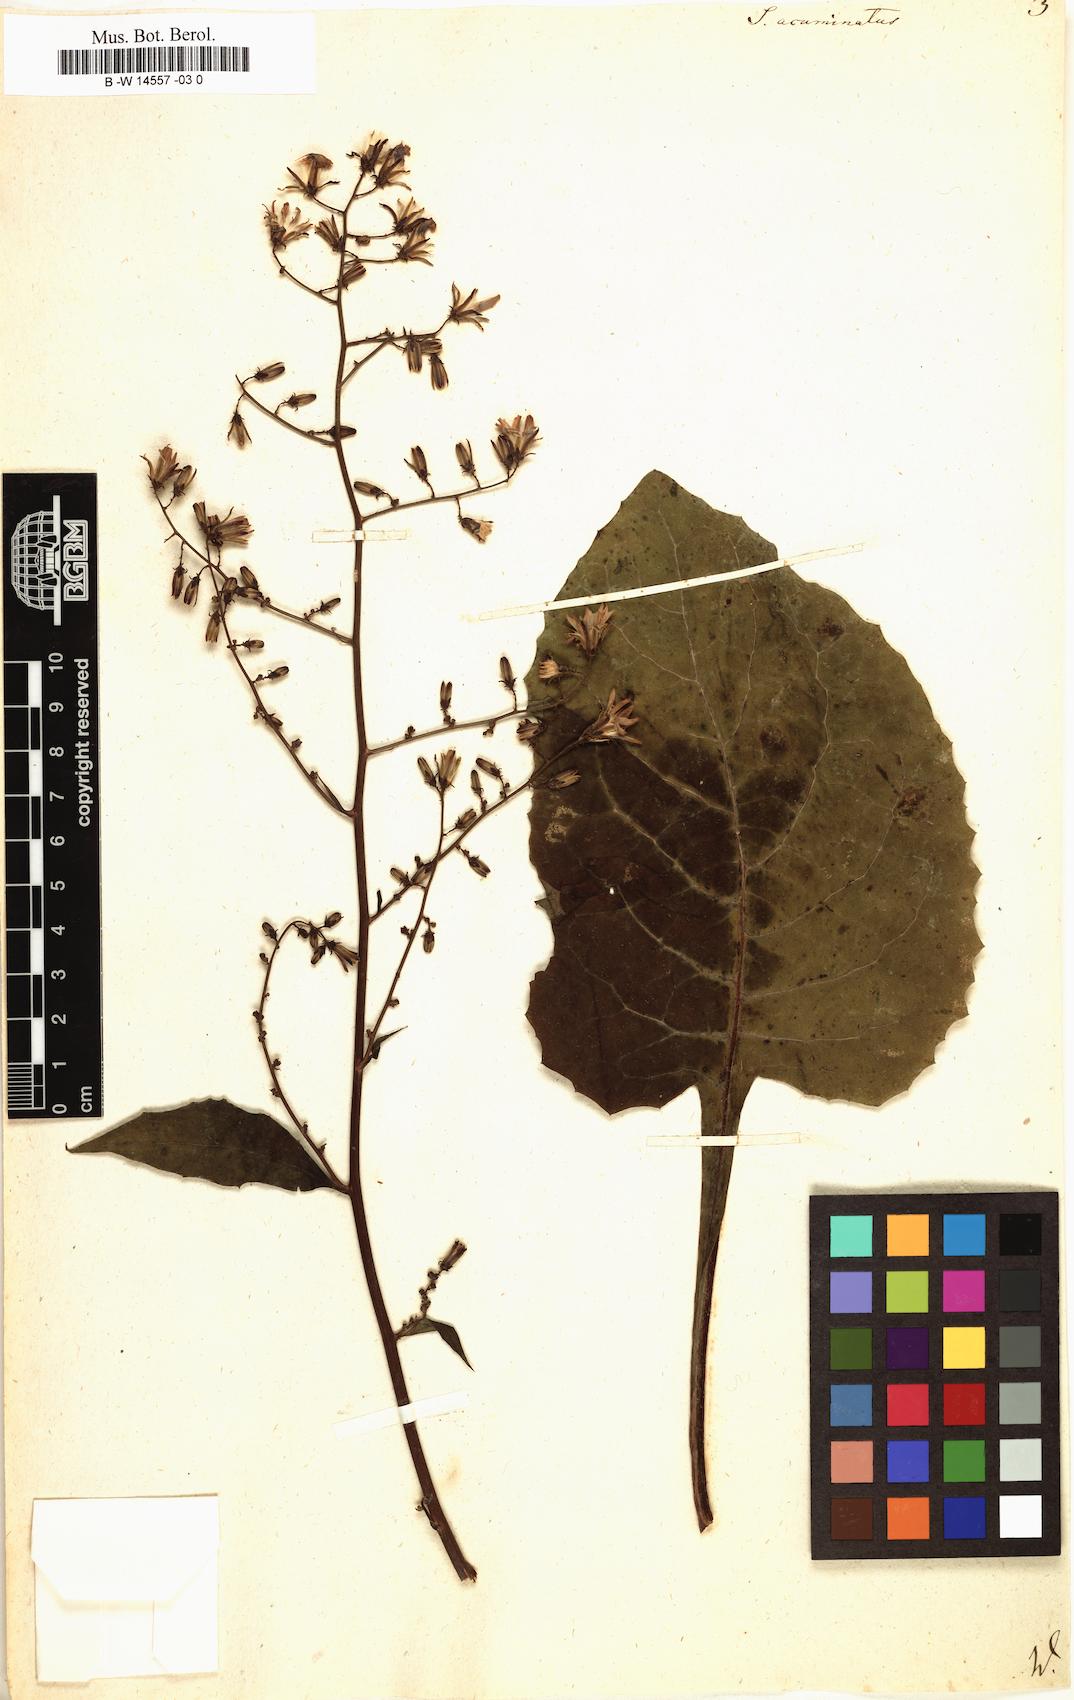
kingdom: Plantae
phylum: Tracheophyta
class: Magnoliopsida
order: Asterales
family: Asteraceae
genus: Sonchus
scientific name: Sonchus acuminatus
